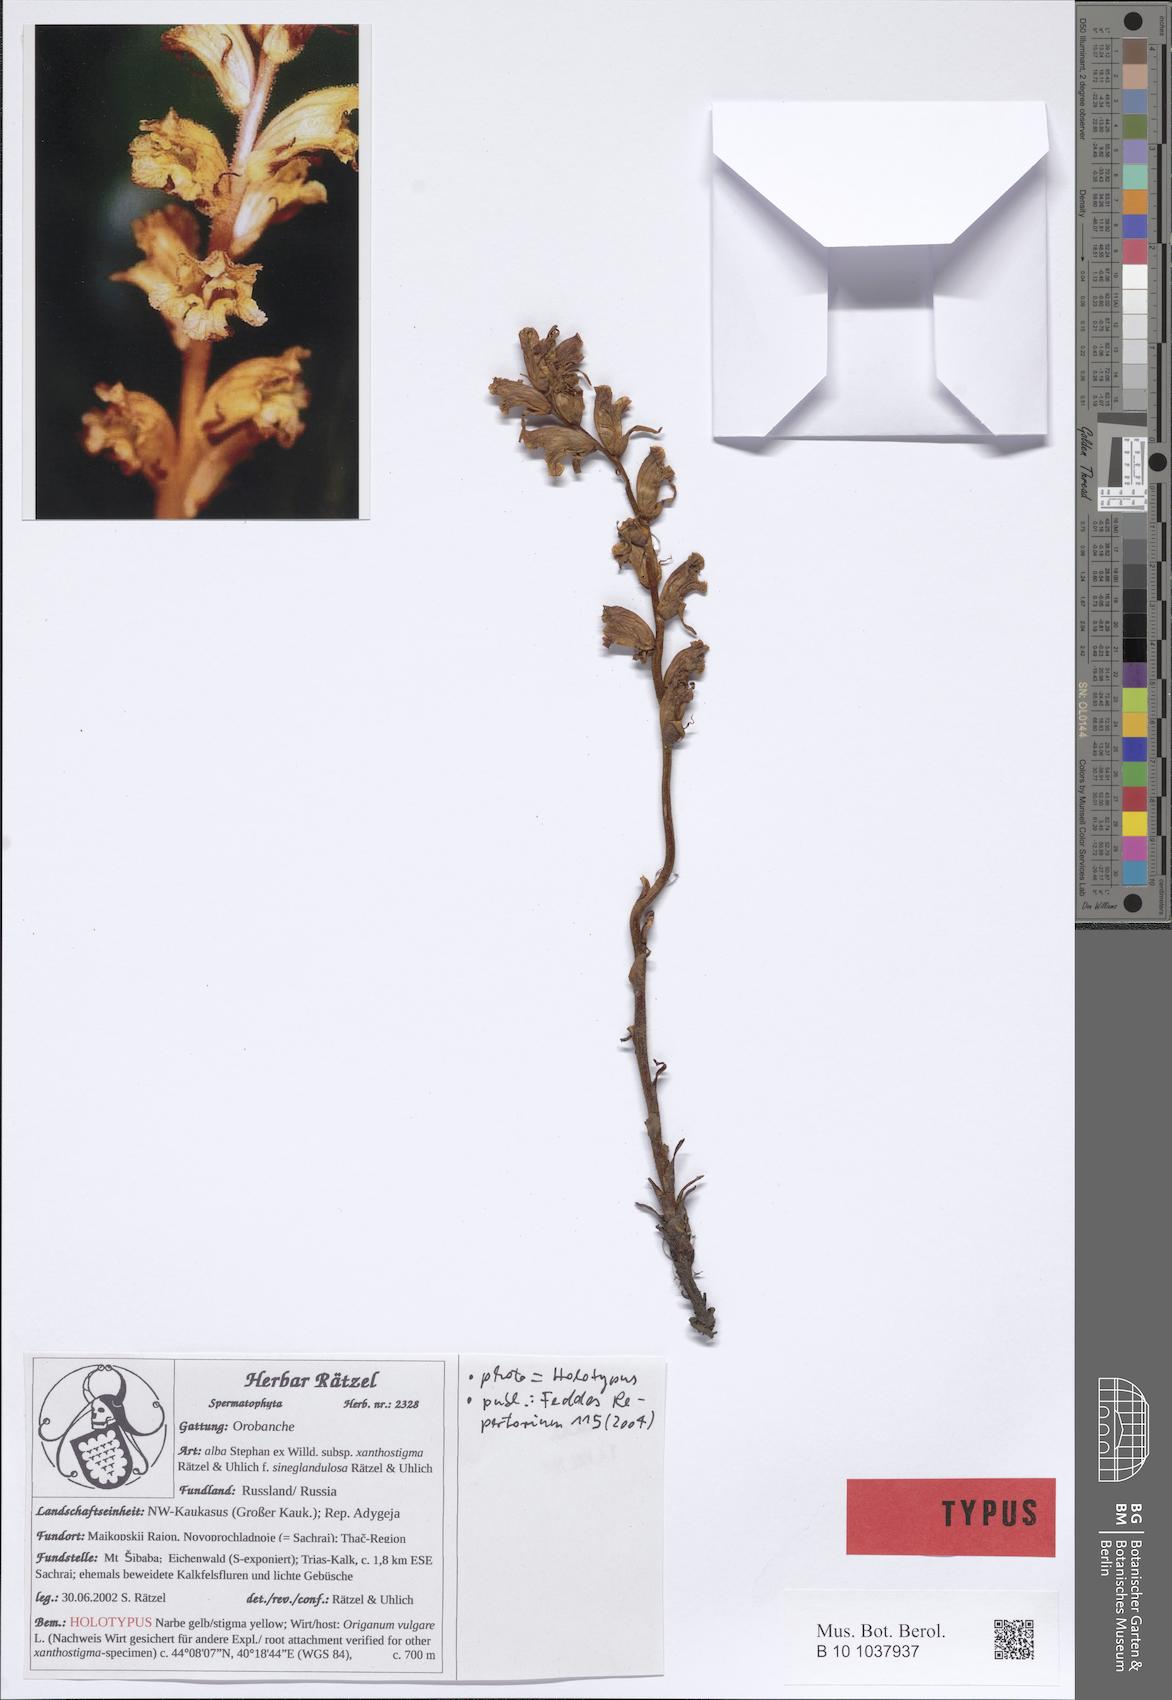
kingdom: Plantae
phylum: Tracheophyta
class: Magnoliopsida
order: Lamiales
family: Orobanchaceae
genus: Orobanche
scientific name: Orobanche alba
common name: Thyme broomrape
